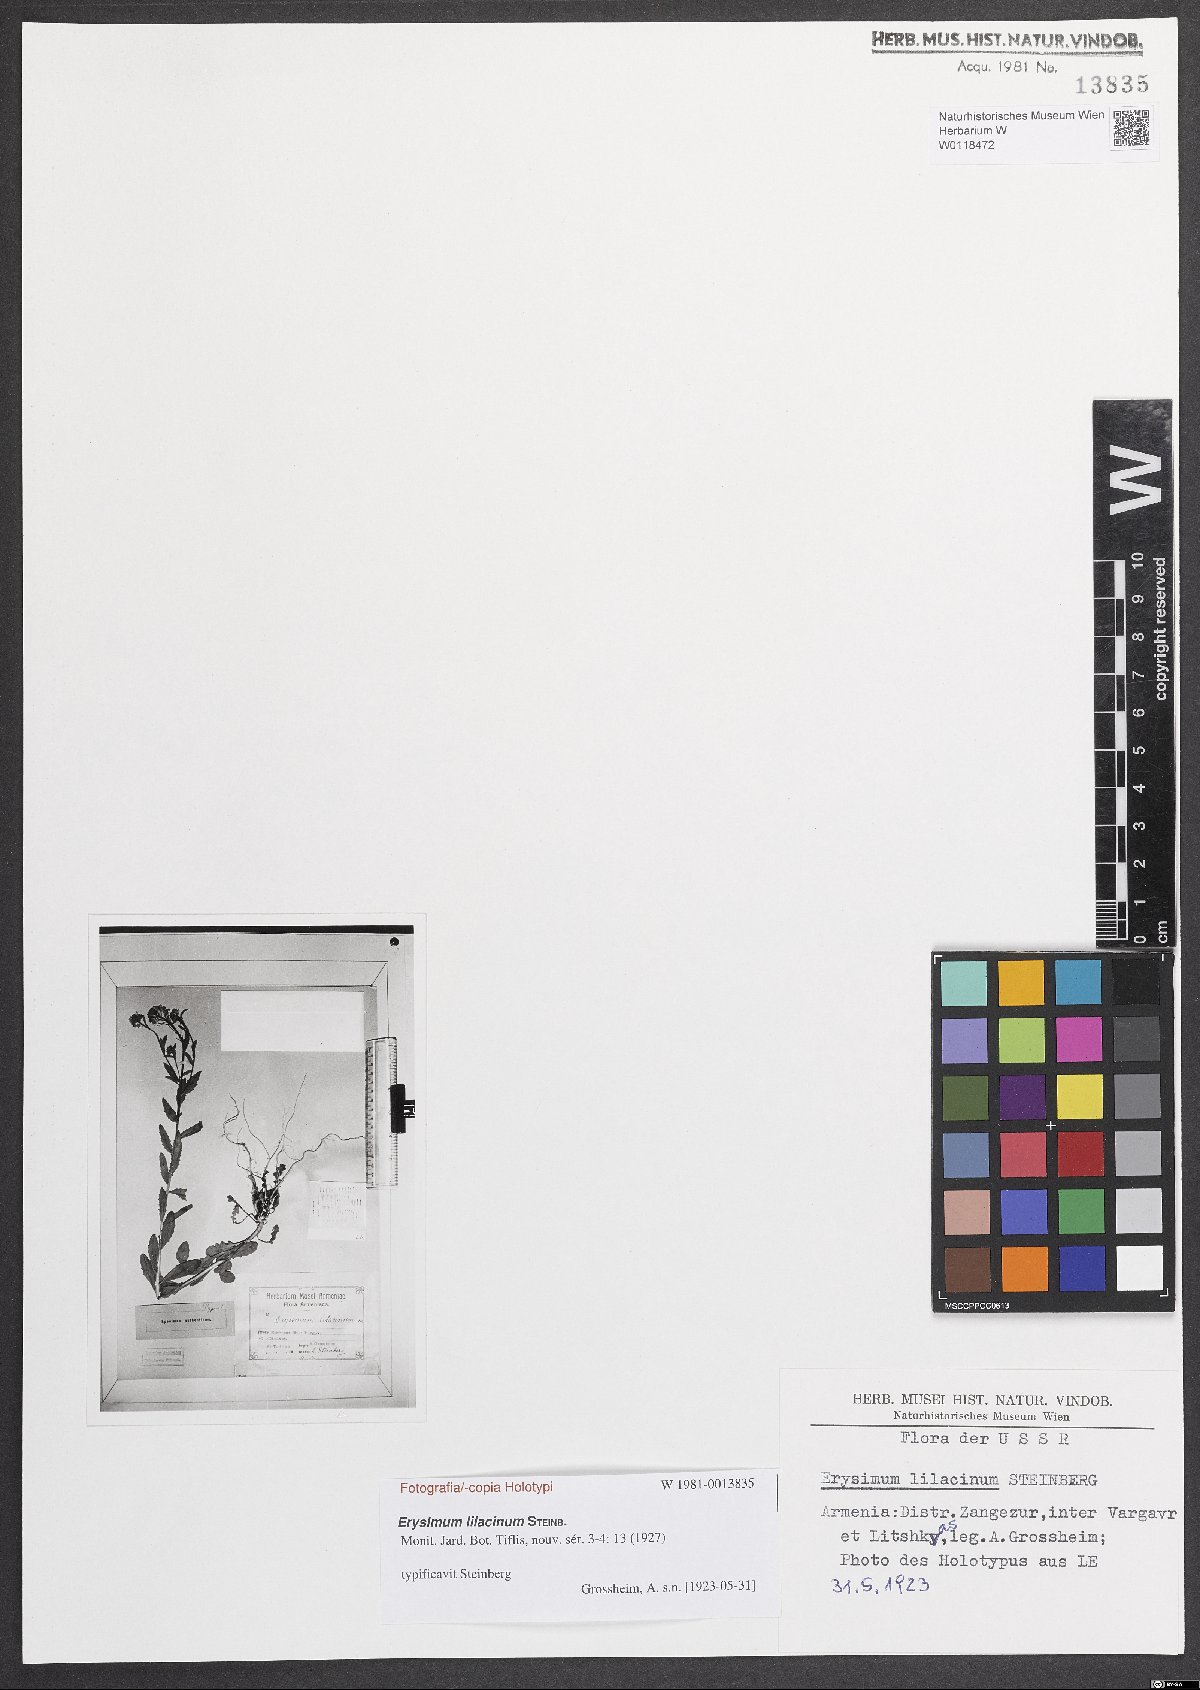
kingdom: Plantae
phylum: Tracheophyta
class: Magnoliopsida
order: Brassicales
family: Brassicaceae
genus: Erysimum
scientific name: Erysimum lilacinum
